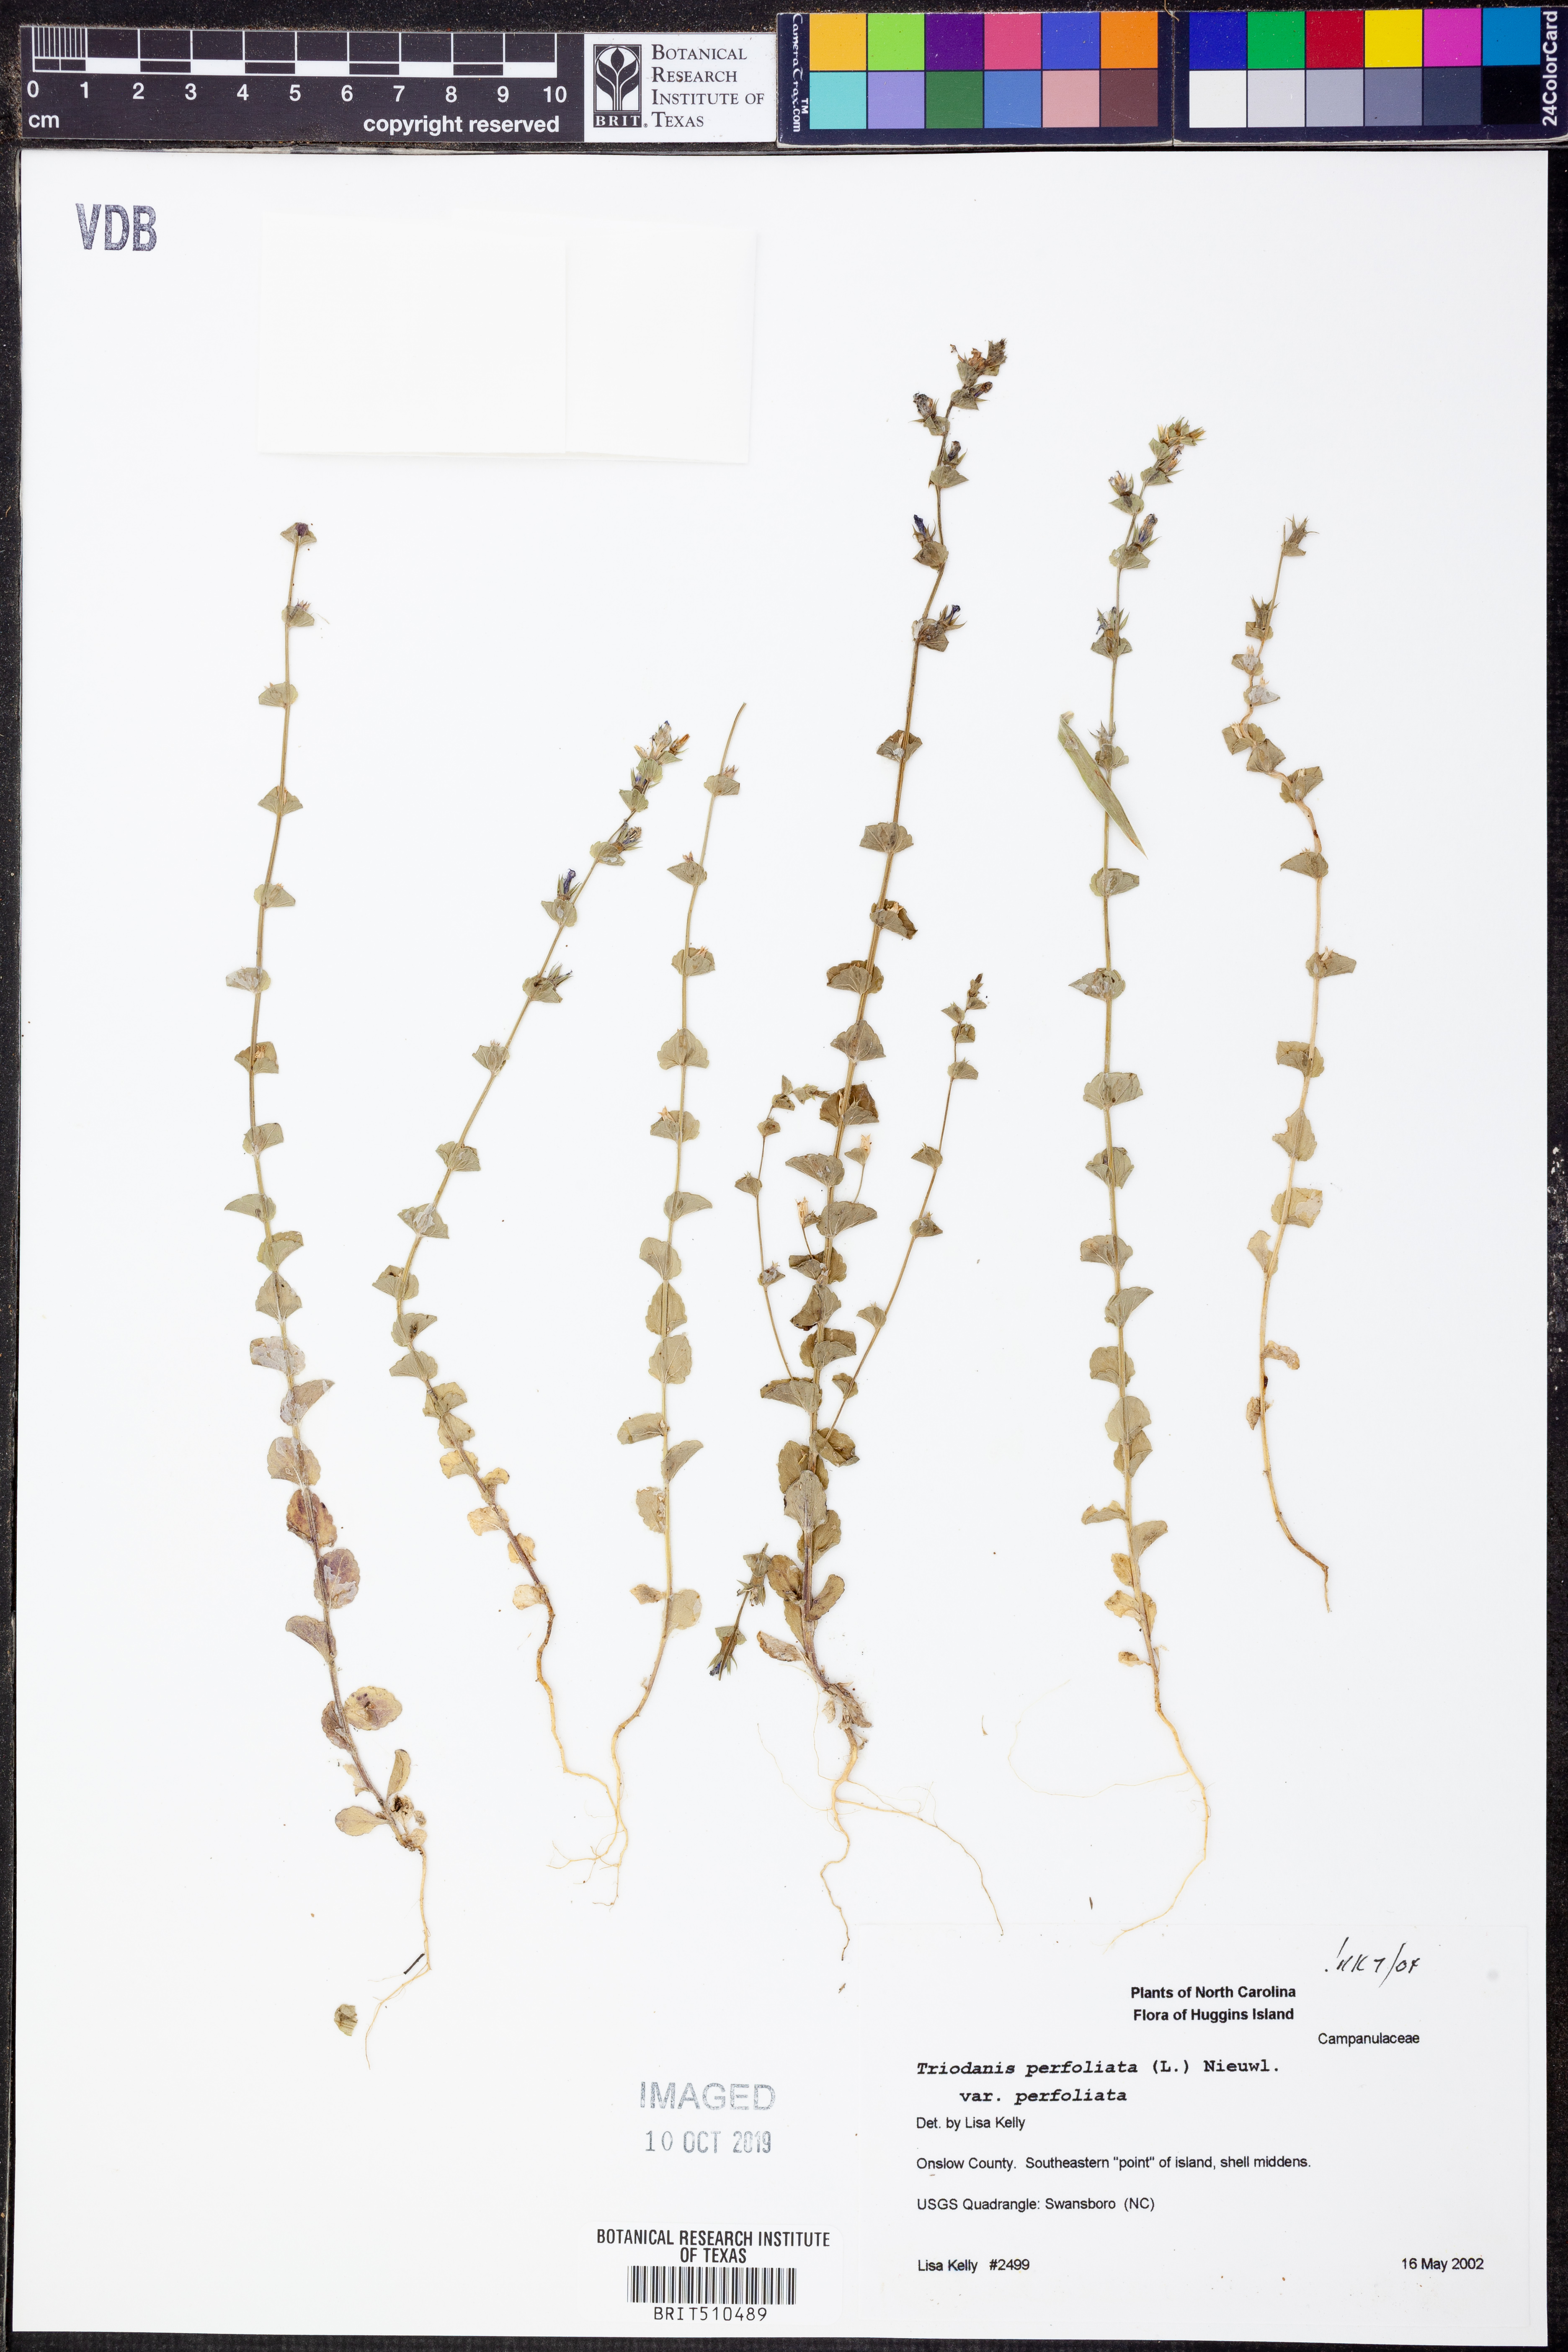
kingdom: Plantae
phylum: Tracheophyta
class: Magnoliopsida
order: Asterales
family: Campanulaceae
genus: Triodanis
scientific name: Triodanis perfoliata
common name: Clasping venus' looking-glass
